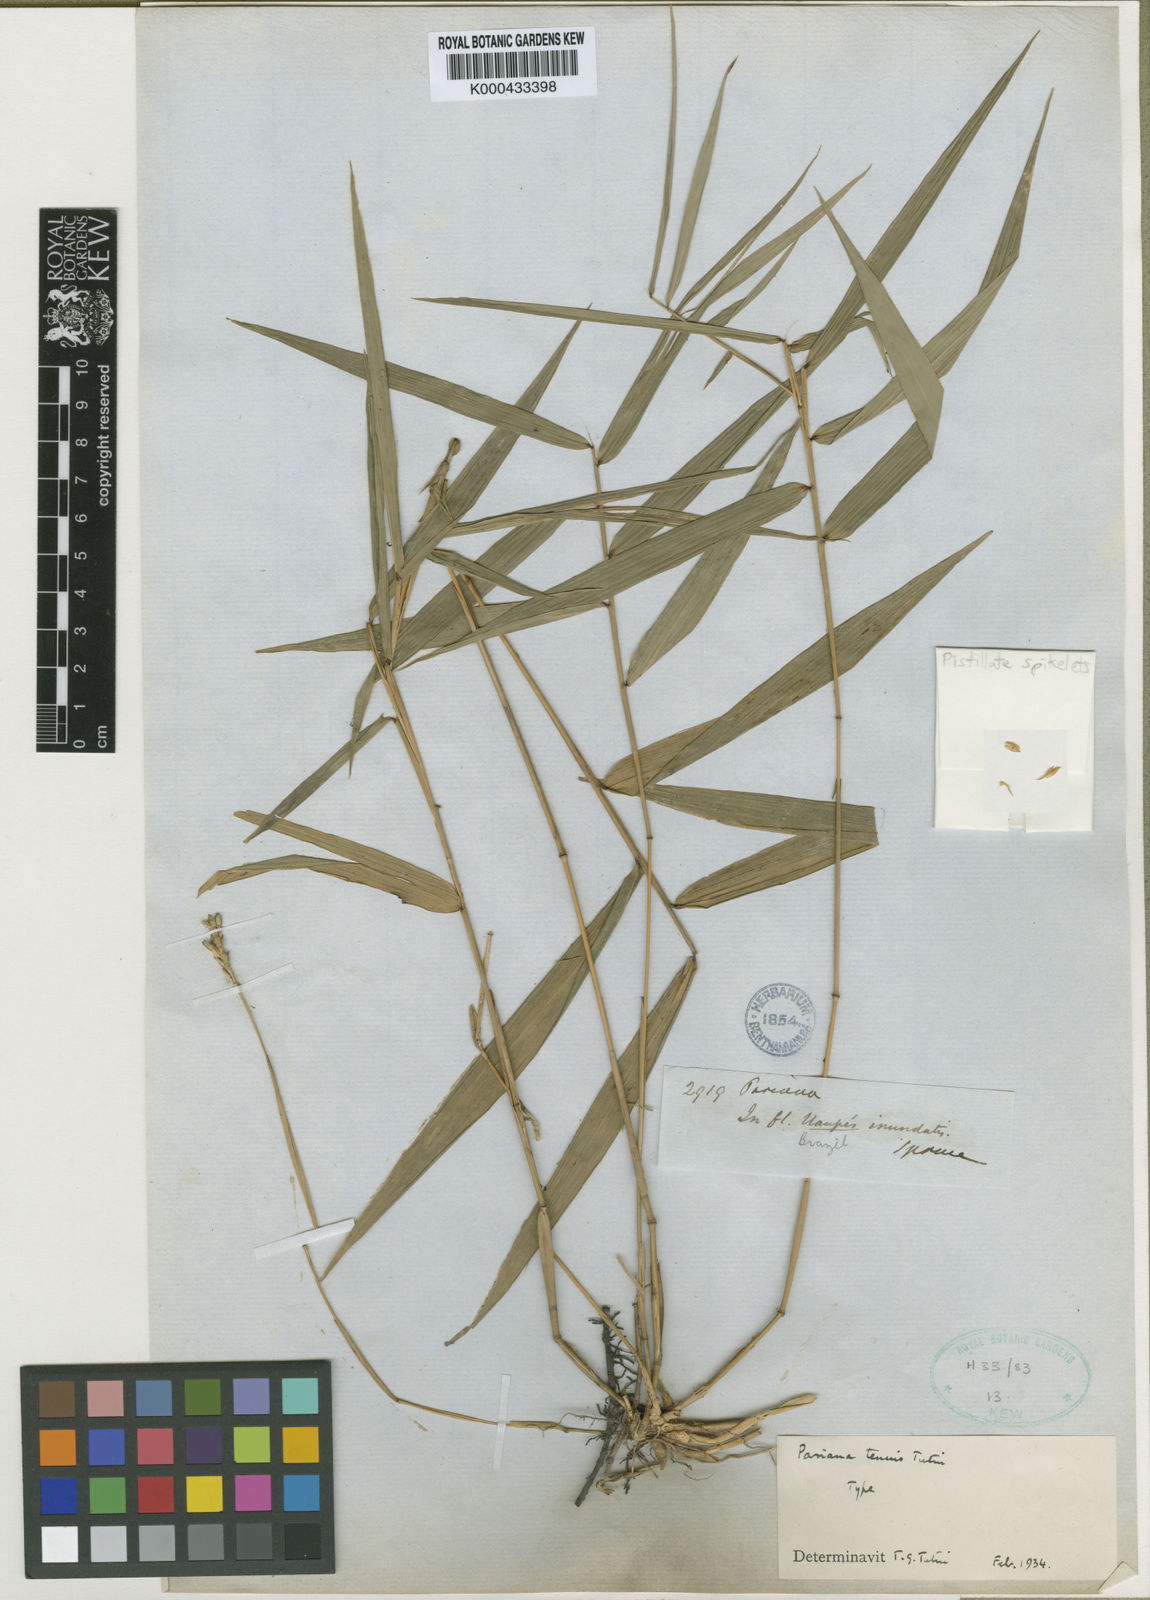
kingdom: Plantae
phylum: Tracheophyta
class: Liliopsida
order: Poales
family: Poaceae
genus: Pariana
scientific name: Pariana tenuis
